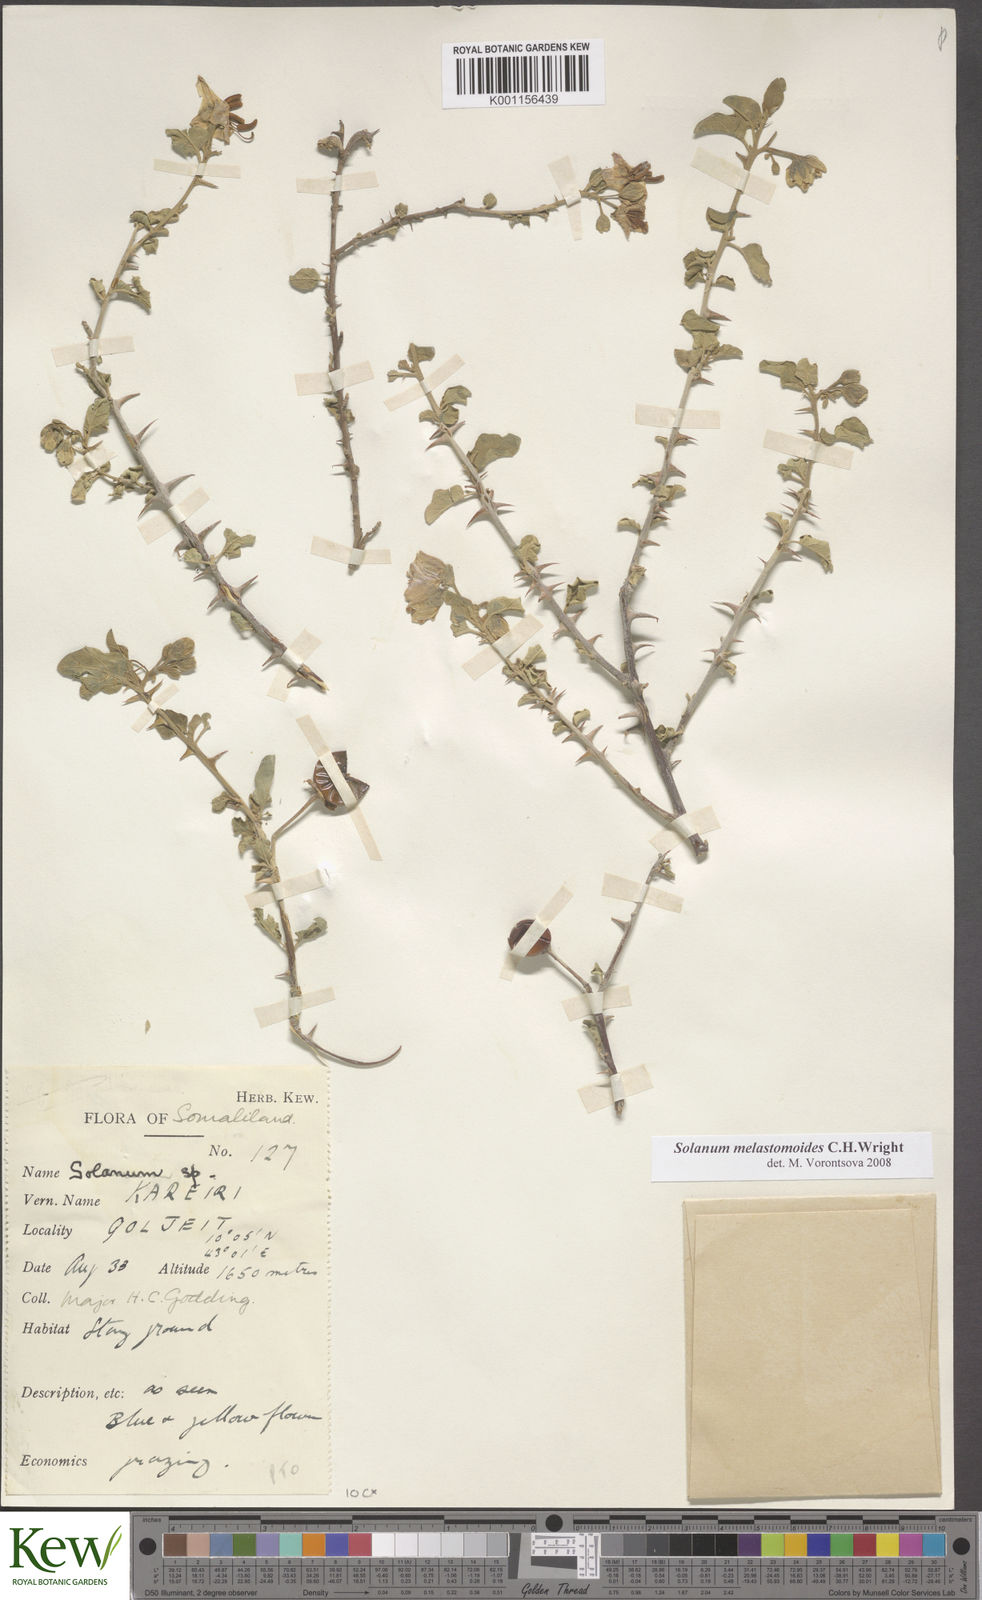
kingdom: Plantae
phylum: Tracheophyta
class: Magnoliopsida
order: Solanales
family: Solanaceae
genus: Solanum
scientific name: Solanum melastomoides
